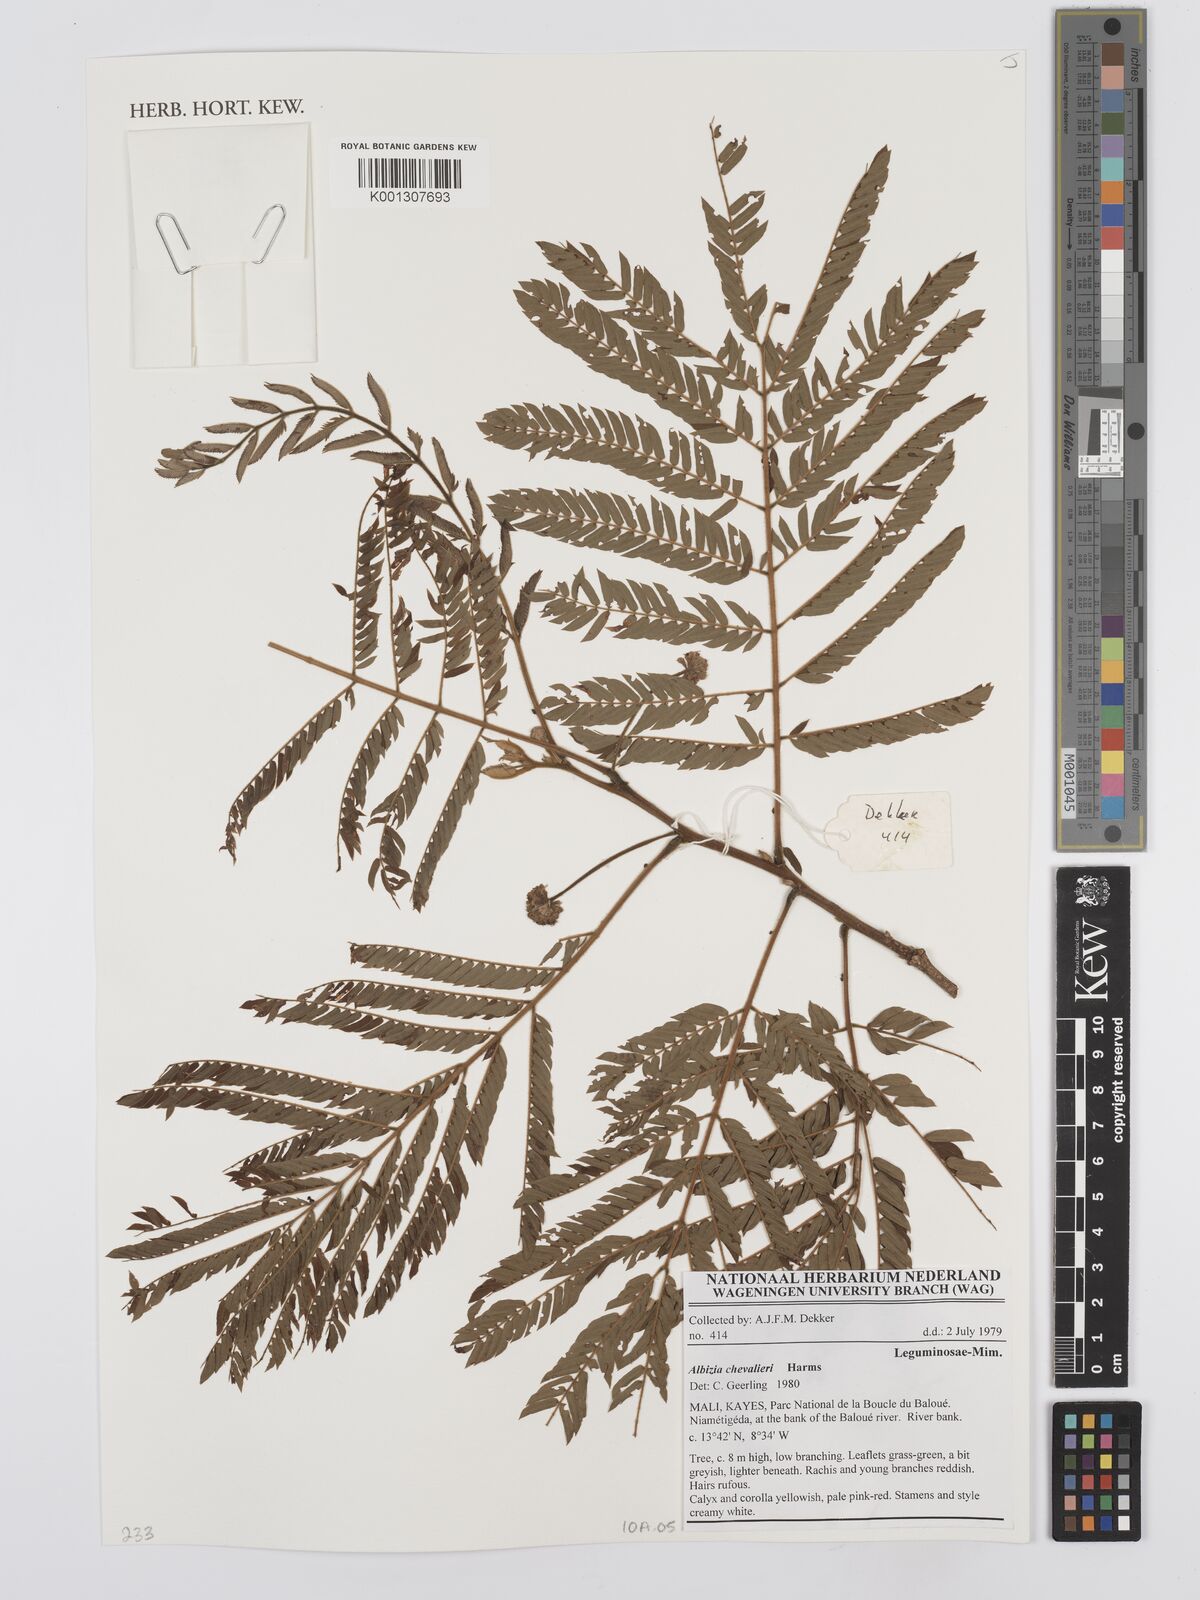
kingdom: Plantae
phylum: Tracheophyta
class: Magnoliopsida
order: Fabales
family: Fabaceae
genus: Albizia
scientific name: Albizia chevalieri
